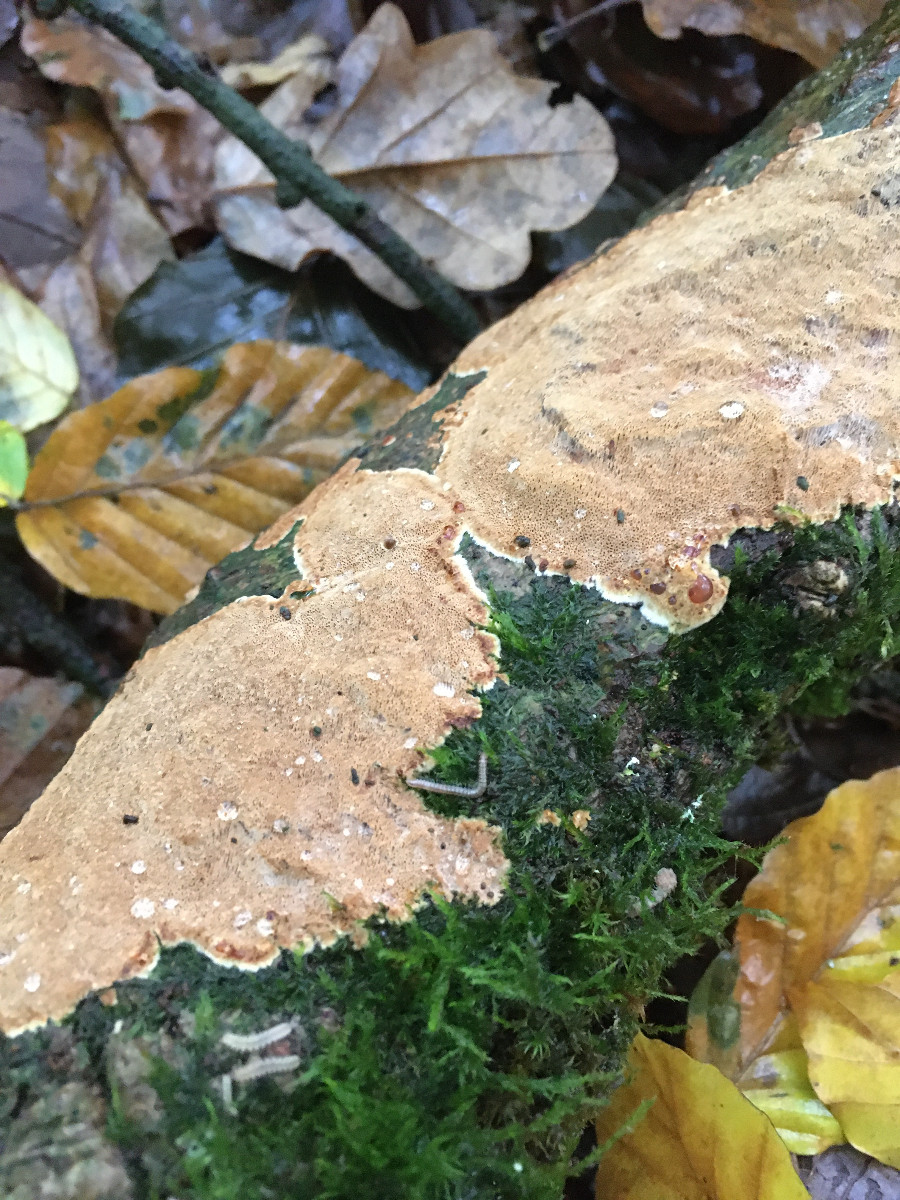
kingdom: Fungi
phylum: Basidiomycota
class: Agaricomycetes
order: Polyporales
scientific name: Polyporales
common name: poresvampordenen
